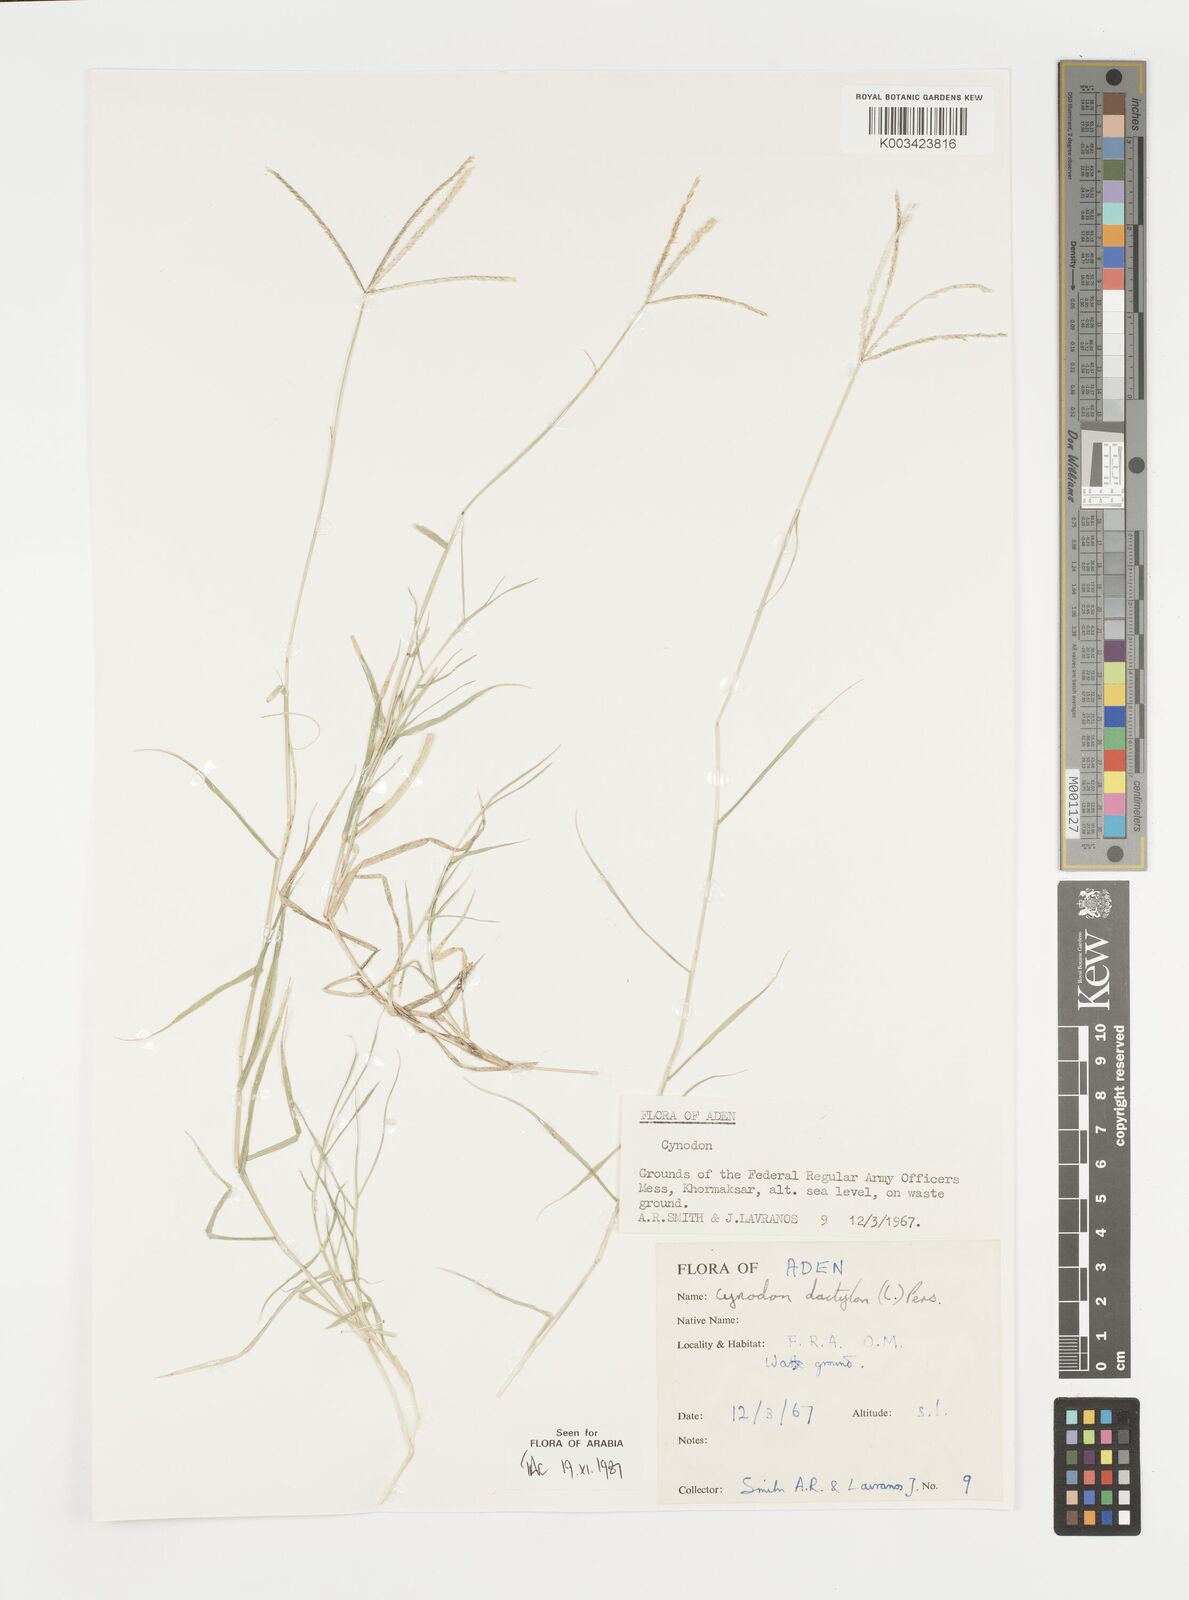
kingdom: Plantae
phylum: Tracheophyta
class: Liliopsida
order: Poales
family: Poaceae
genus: Cynodon
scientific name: Cynodon dactylon
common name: Bermuda grass
